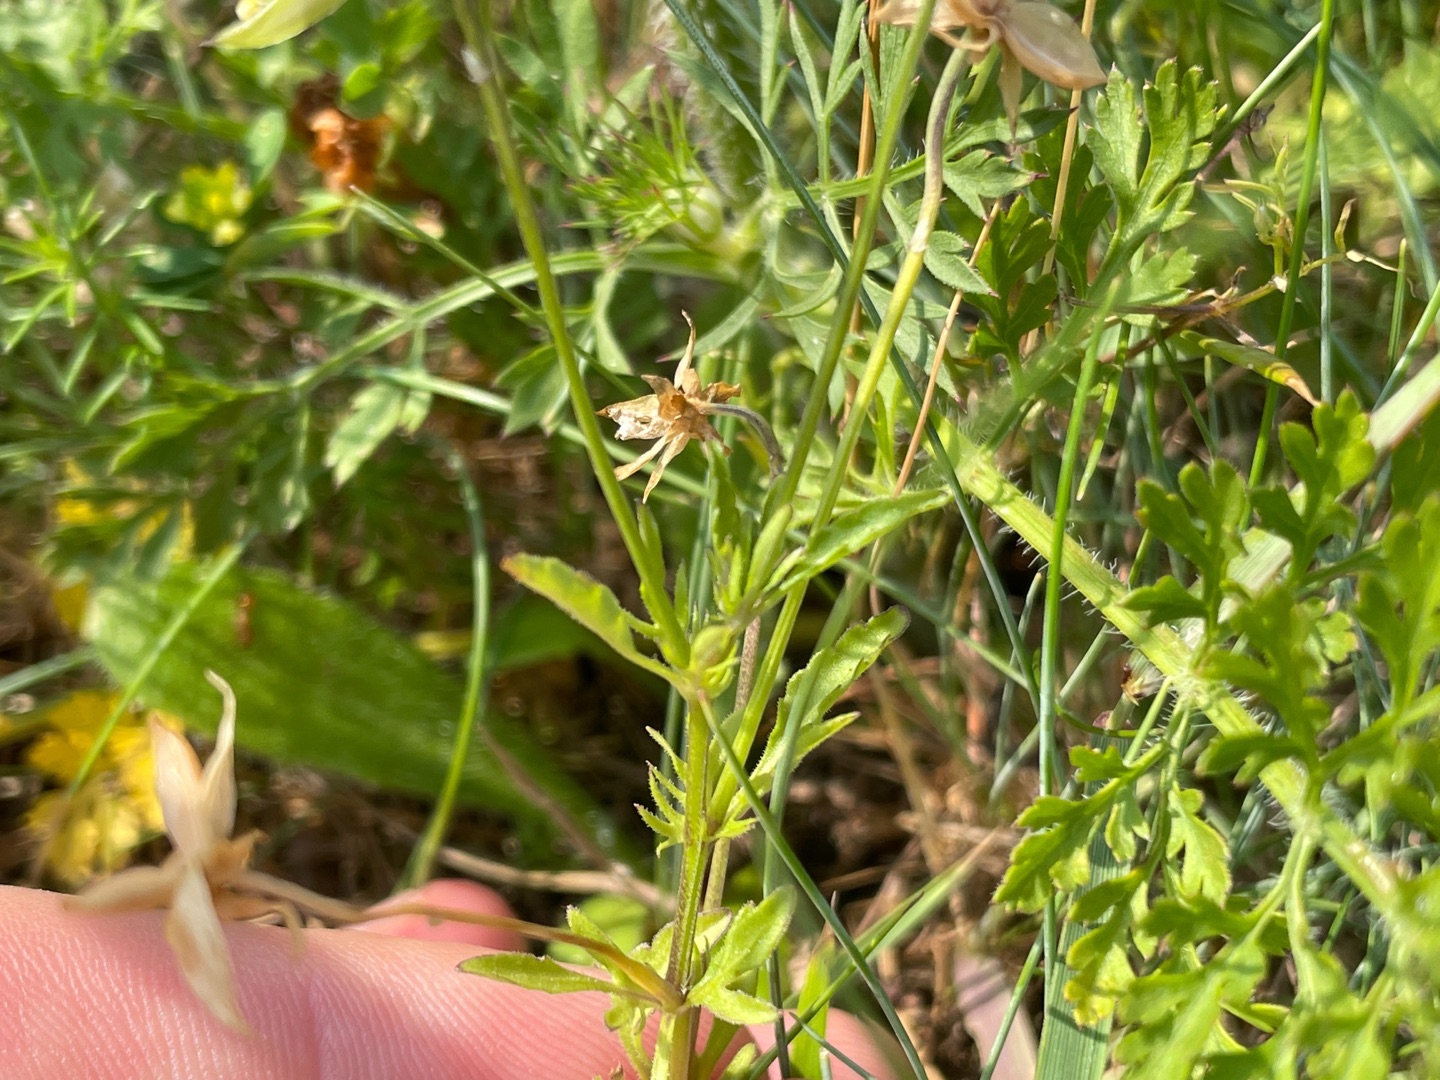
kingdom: Plantae
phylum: Tracheophyta
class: Magnoliopsida
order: Malpighiales
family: Violaceae
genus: Viola
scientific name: Viola tricolor
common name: Stedmoderblomst
